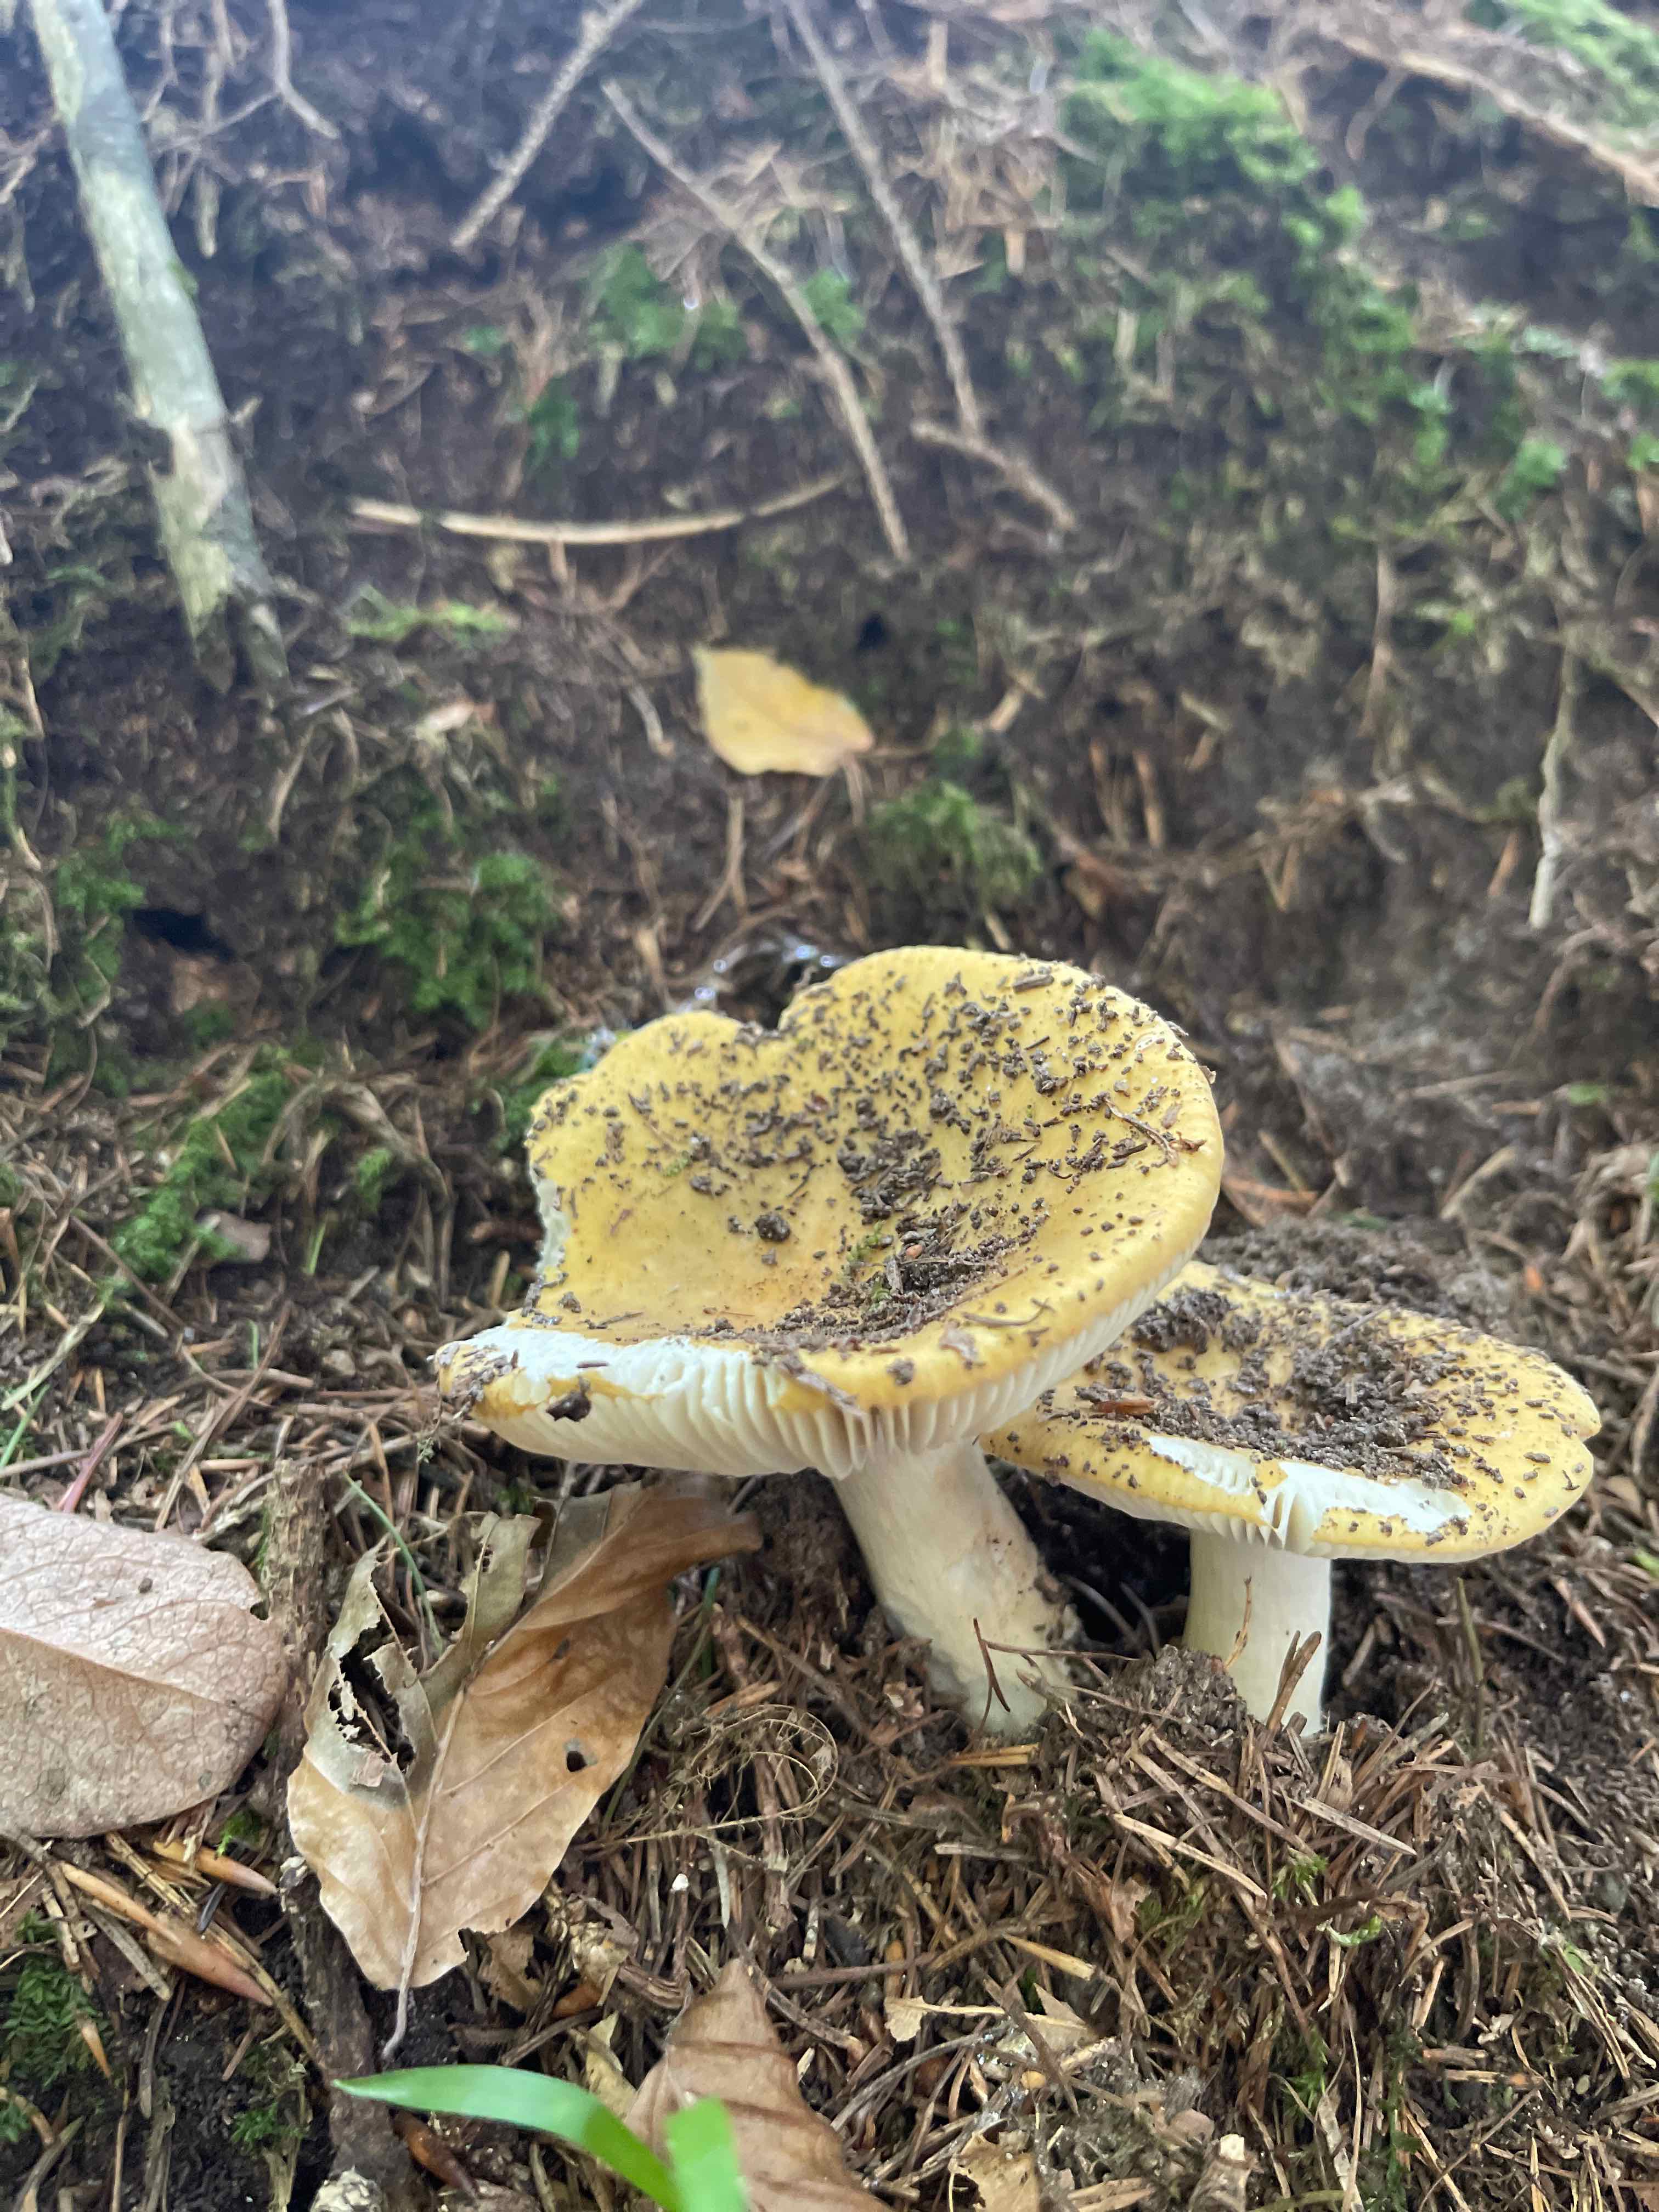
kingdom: Fungi
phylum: Basidiomycota
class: Agaricomycetes
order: Russulales
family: Russulaceae
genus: Russula
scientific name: Russula ochroleuca
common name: okkergul skørhat
